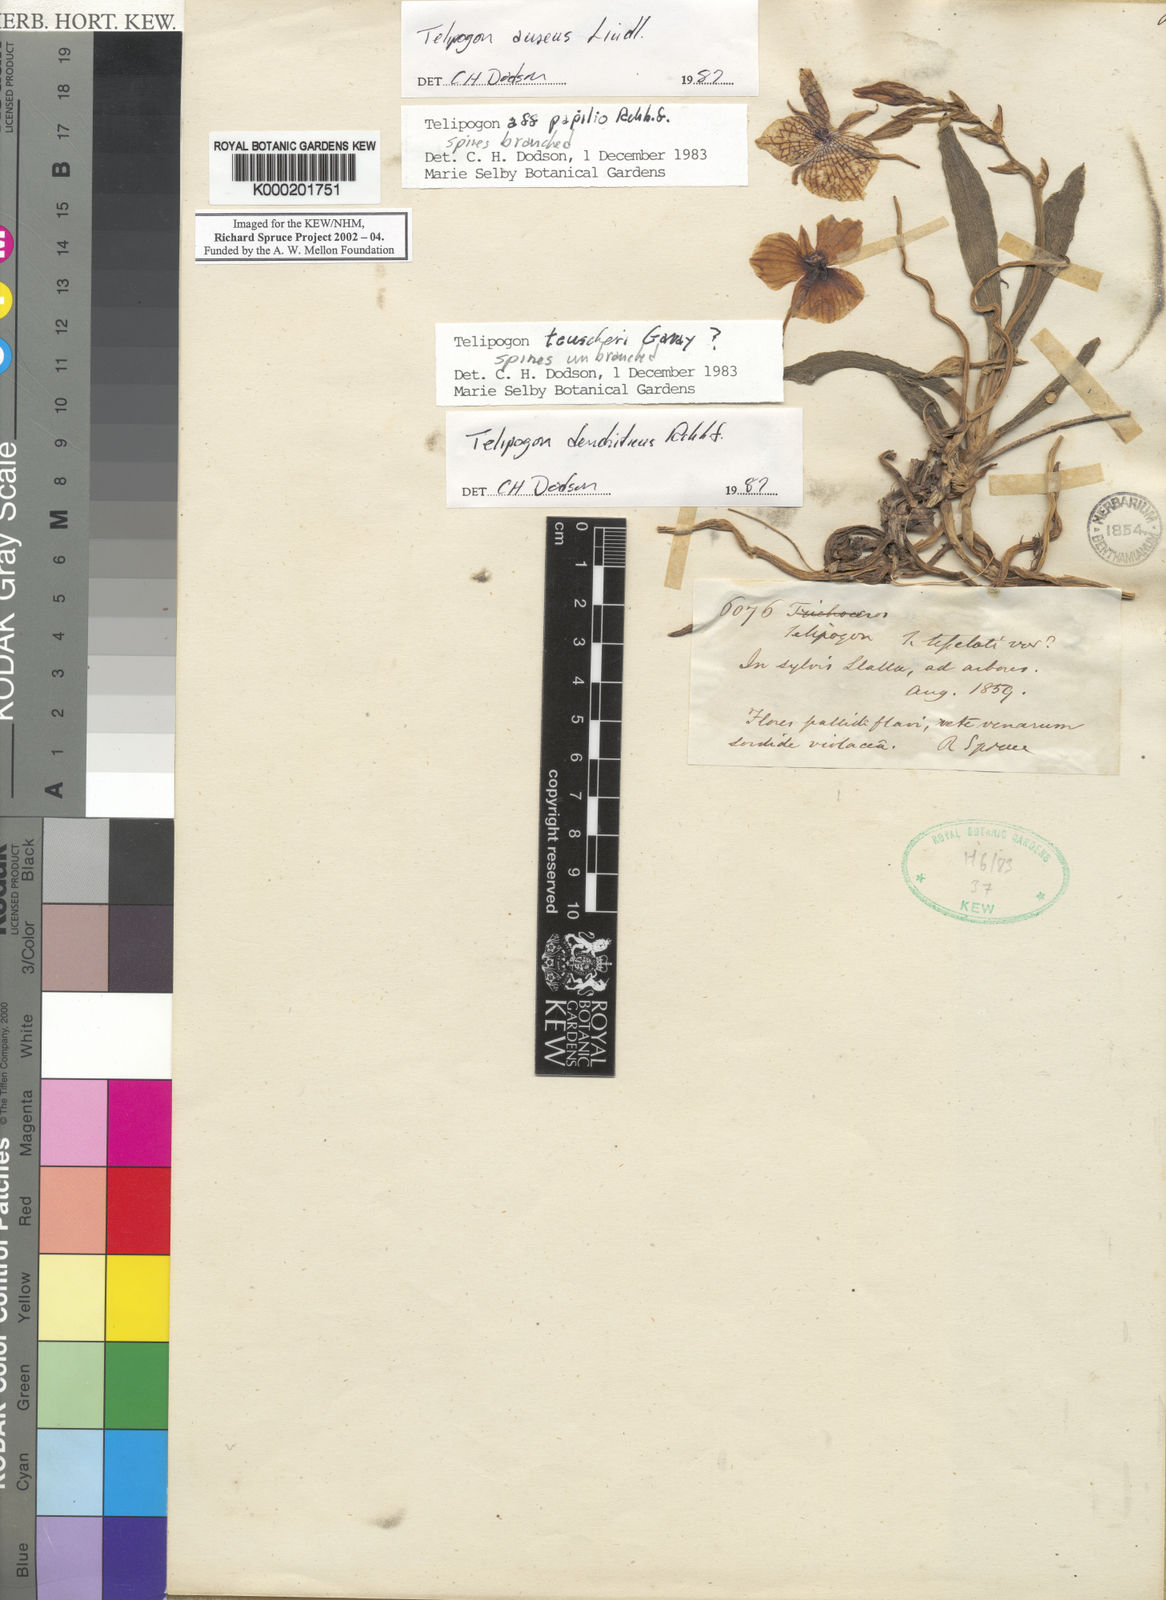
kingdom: Plantae
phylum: Tracheophyta
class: Liliopsida
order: Asparagales
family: Orchidaceae
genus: Telipogon
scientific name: Telipogon dendriticus
